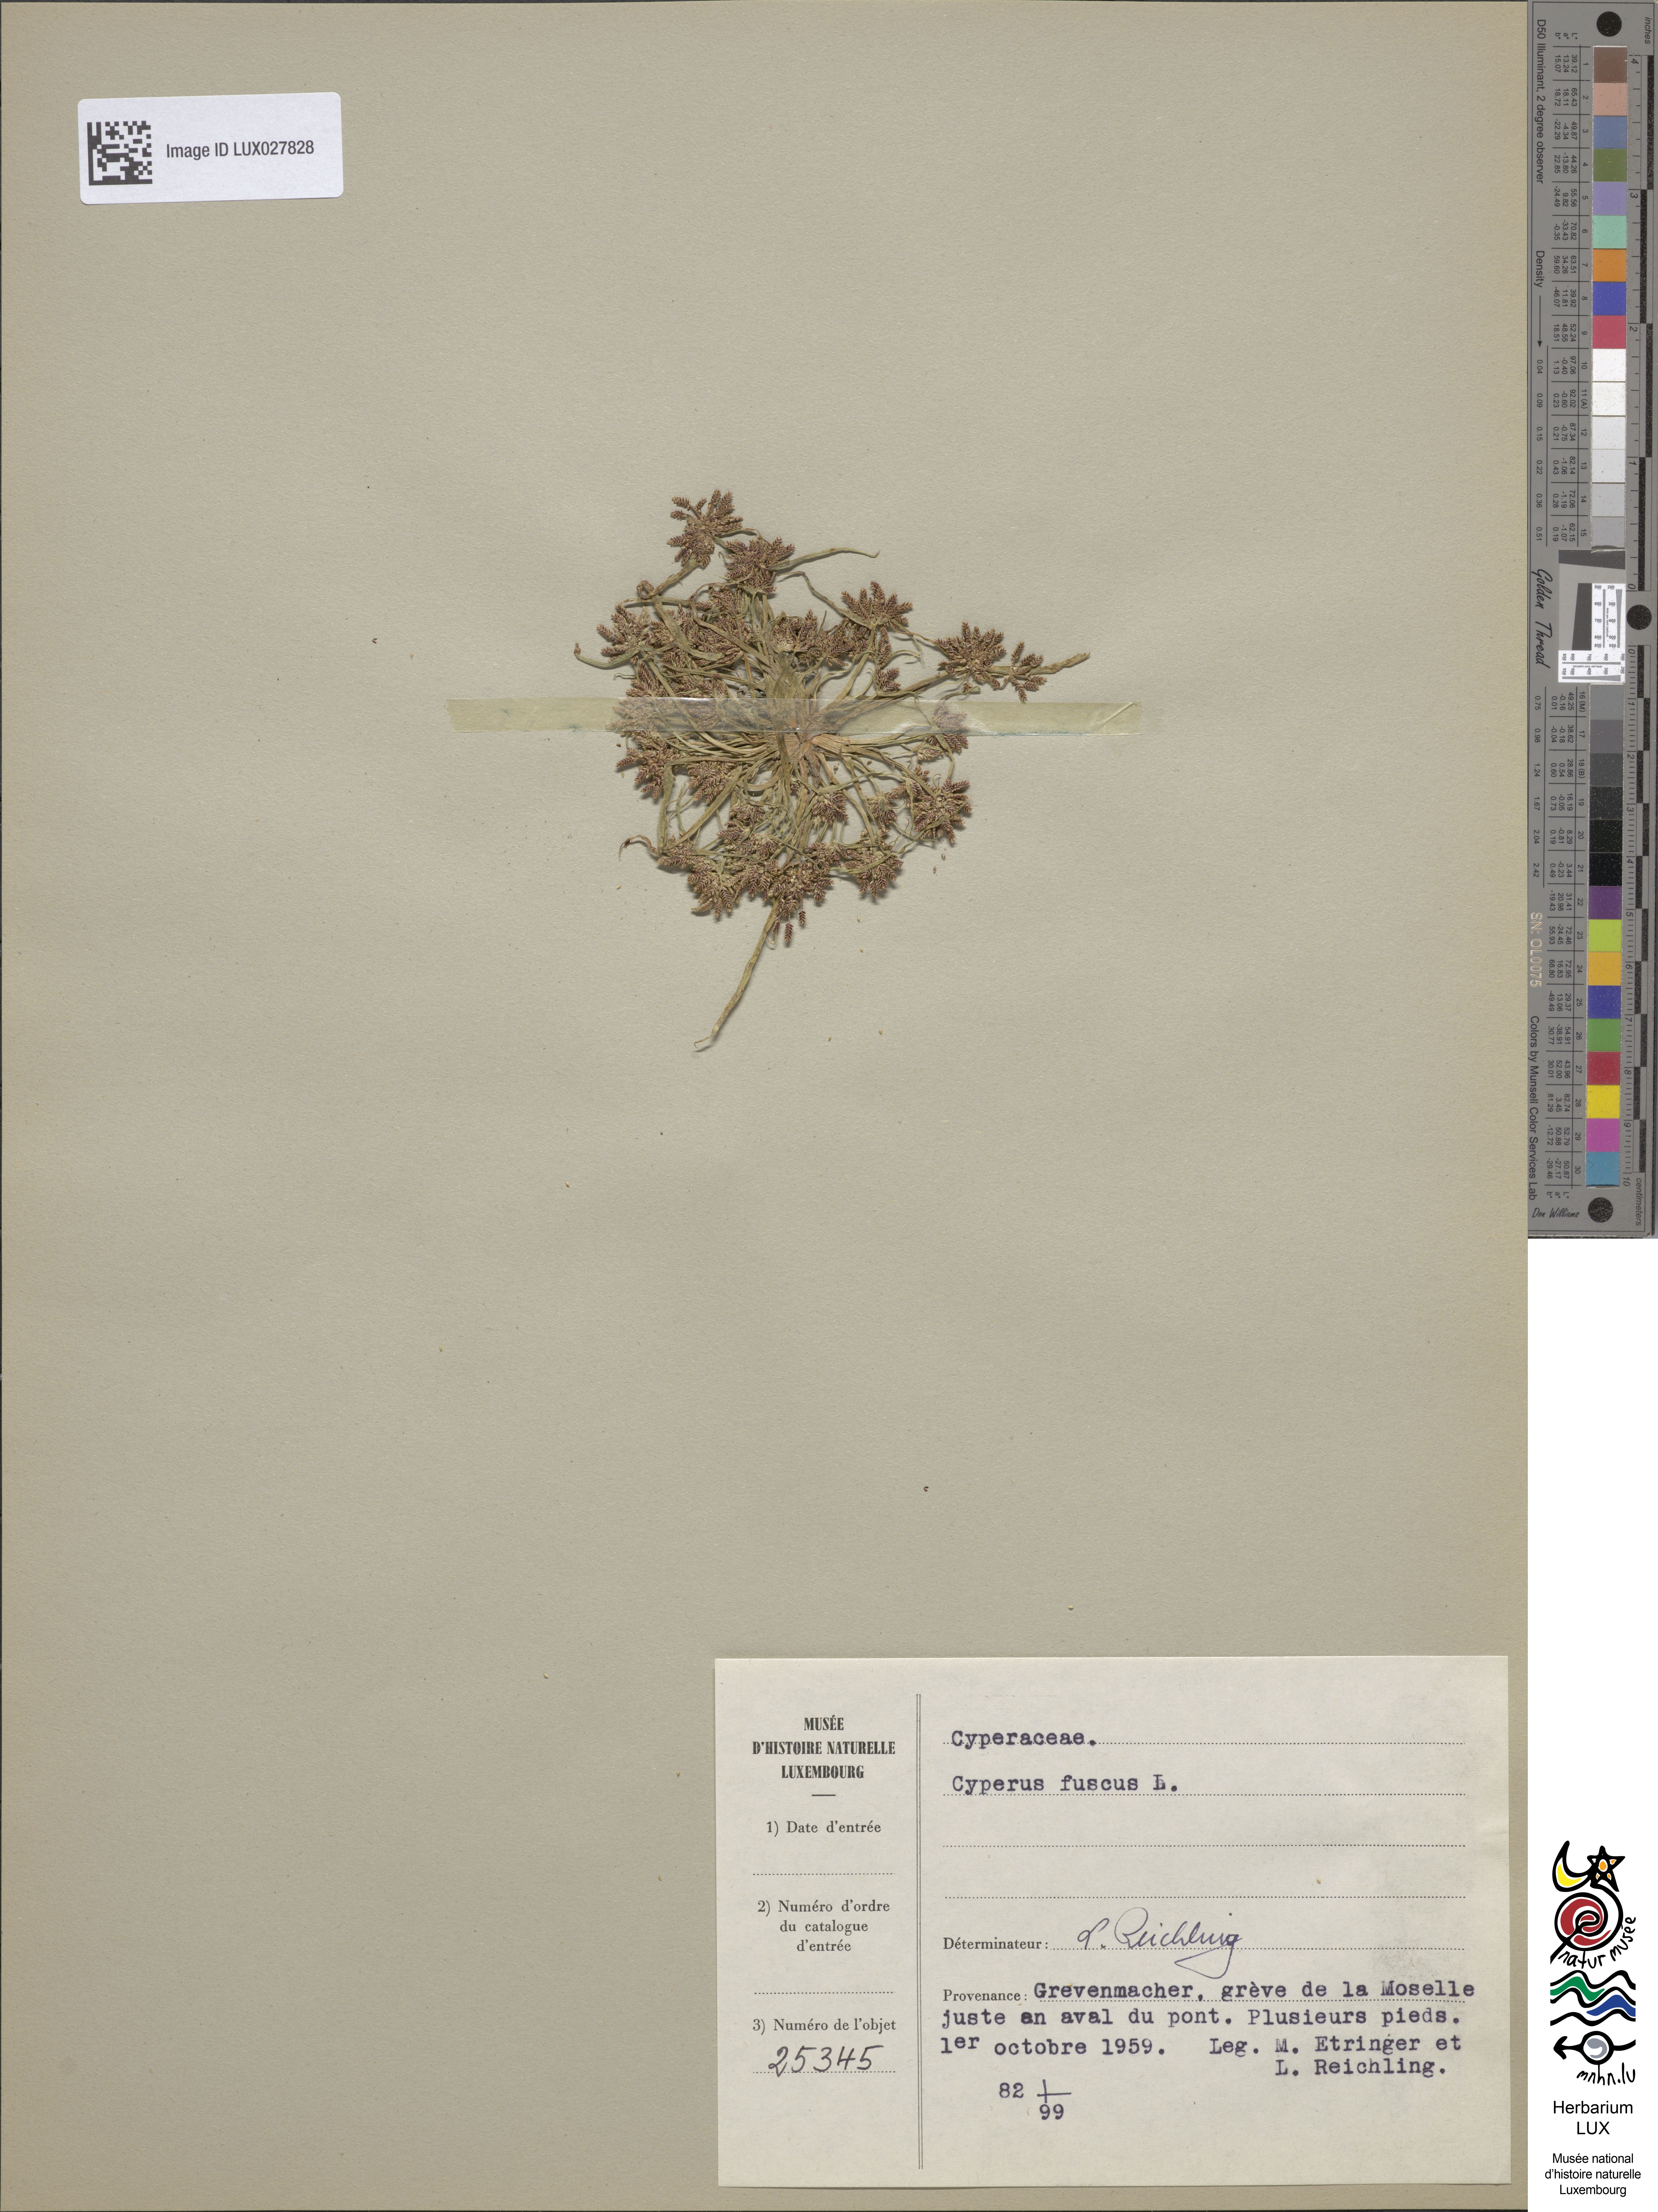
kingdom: Plantae
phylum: Tracheophyta
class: Liliopsida
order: Poales
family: Cyperaceae
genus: Cyperus
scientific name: Cyperus fuscus
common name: Brown galingale
